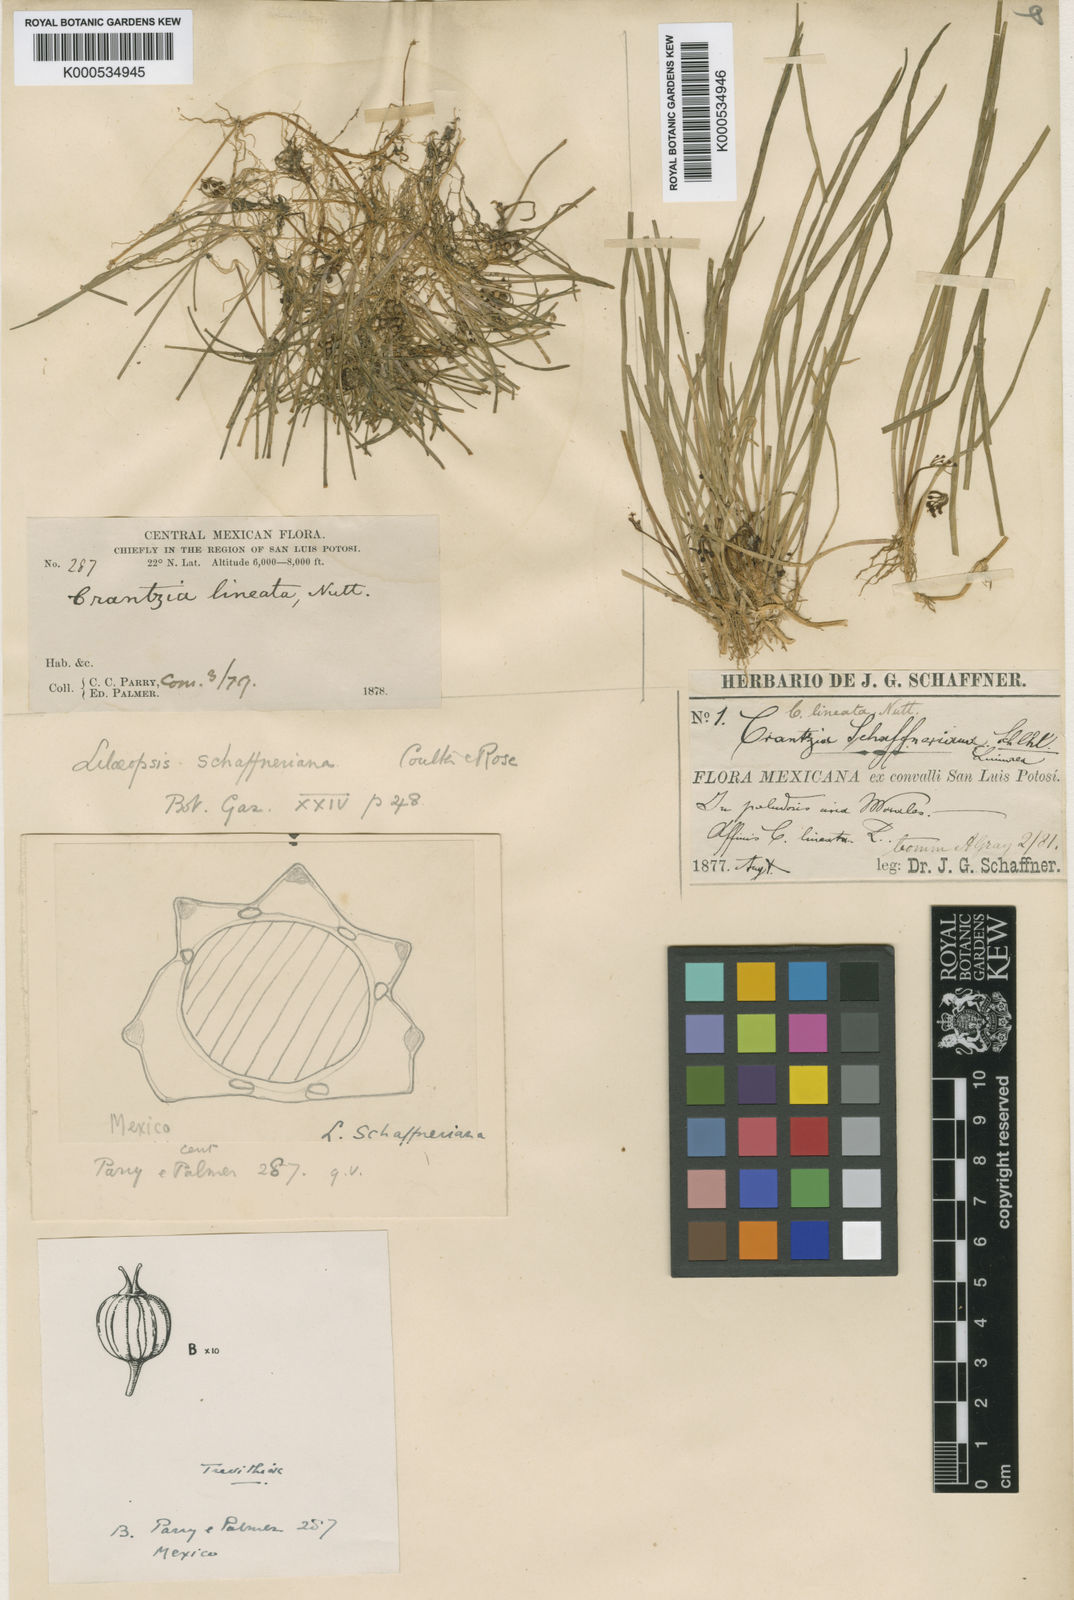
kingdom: Plantae
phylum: Tracheophyta
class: Magnoliopsida
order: Apiales
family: Apiaceae
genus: Lilaeopsis
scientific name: Lilaeopsis
